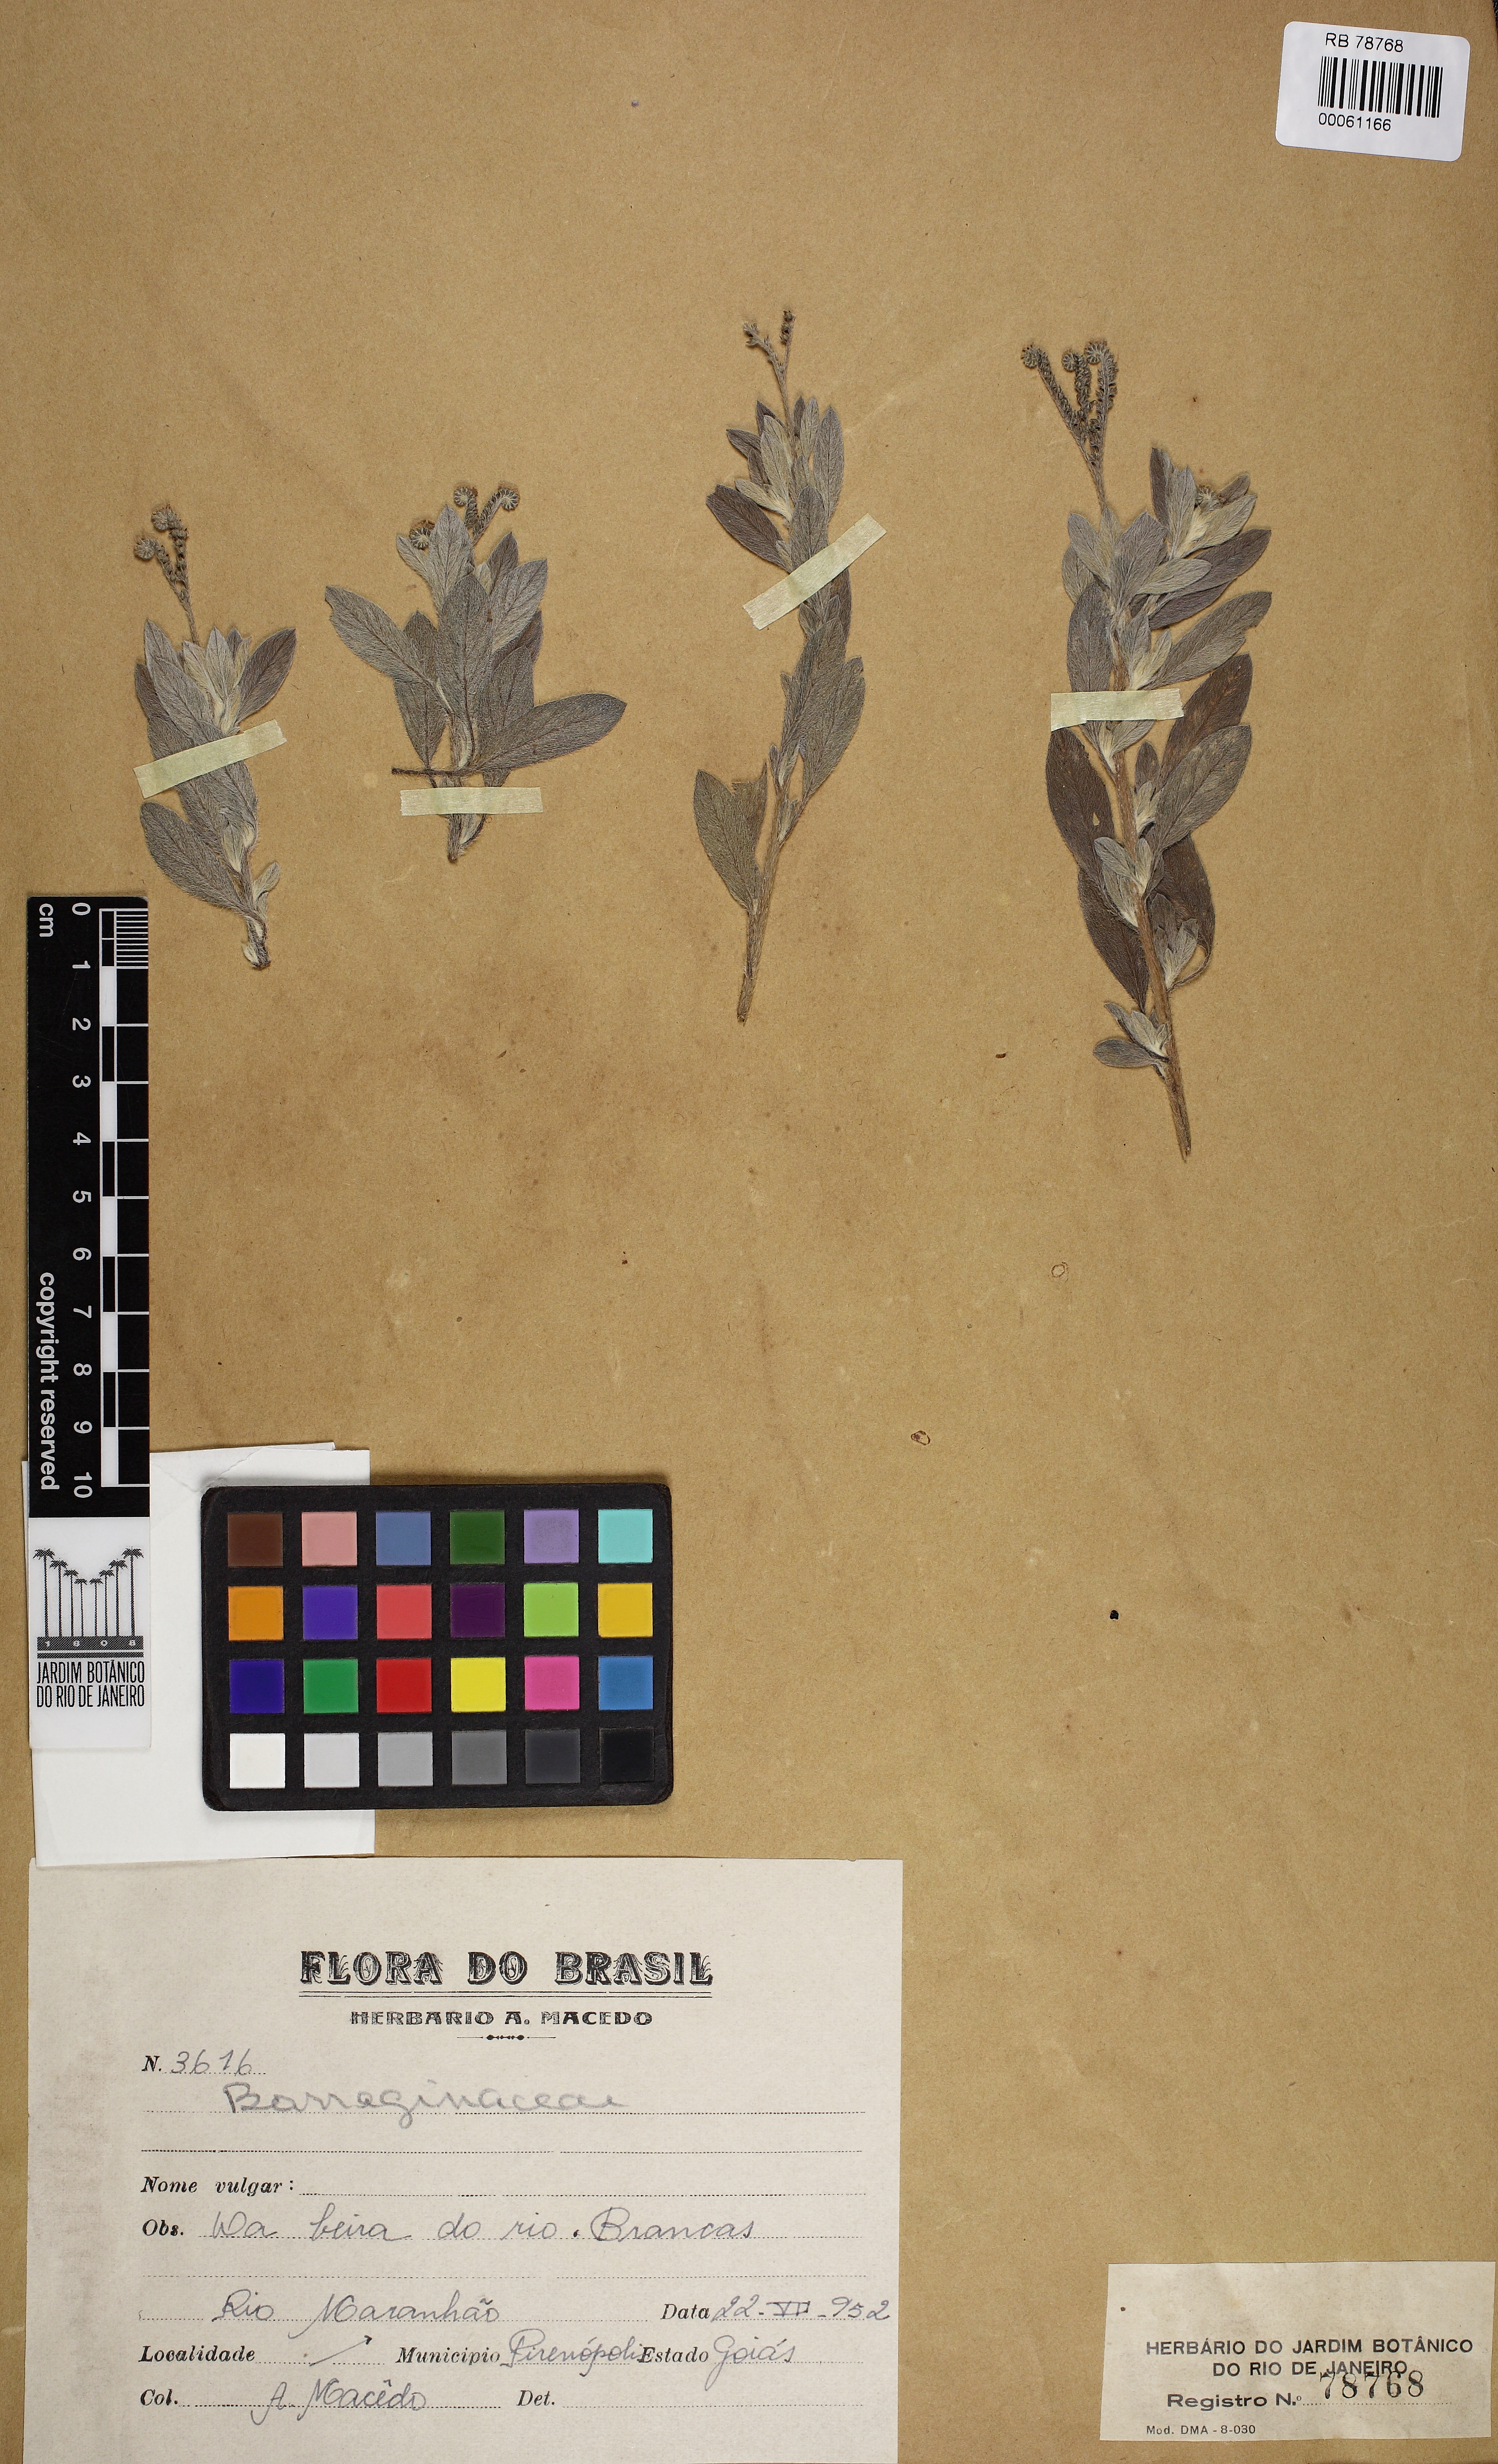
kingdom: Plantae
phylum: Tracheophyta
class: Magnoliopsida
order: Boraginales
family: Heliotropiaceae
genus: Euploca
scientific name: Euploca procumbens
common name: Fourspike heliotrope
